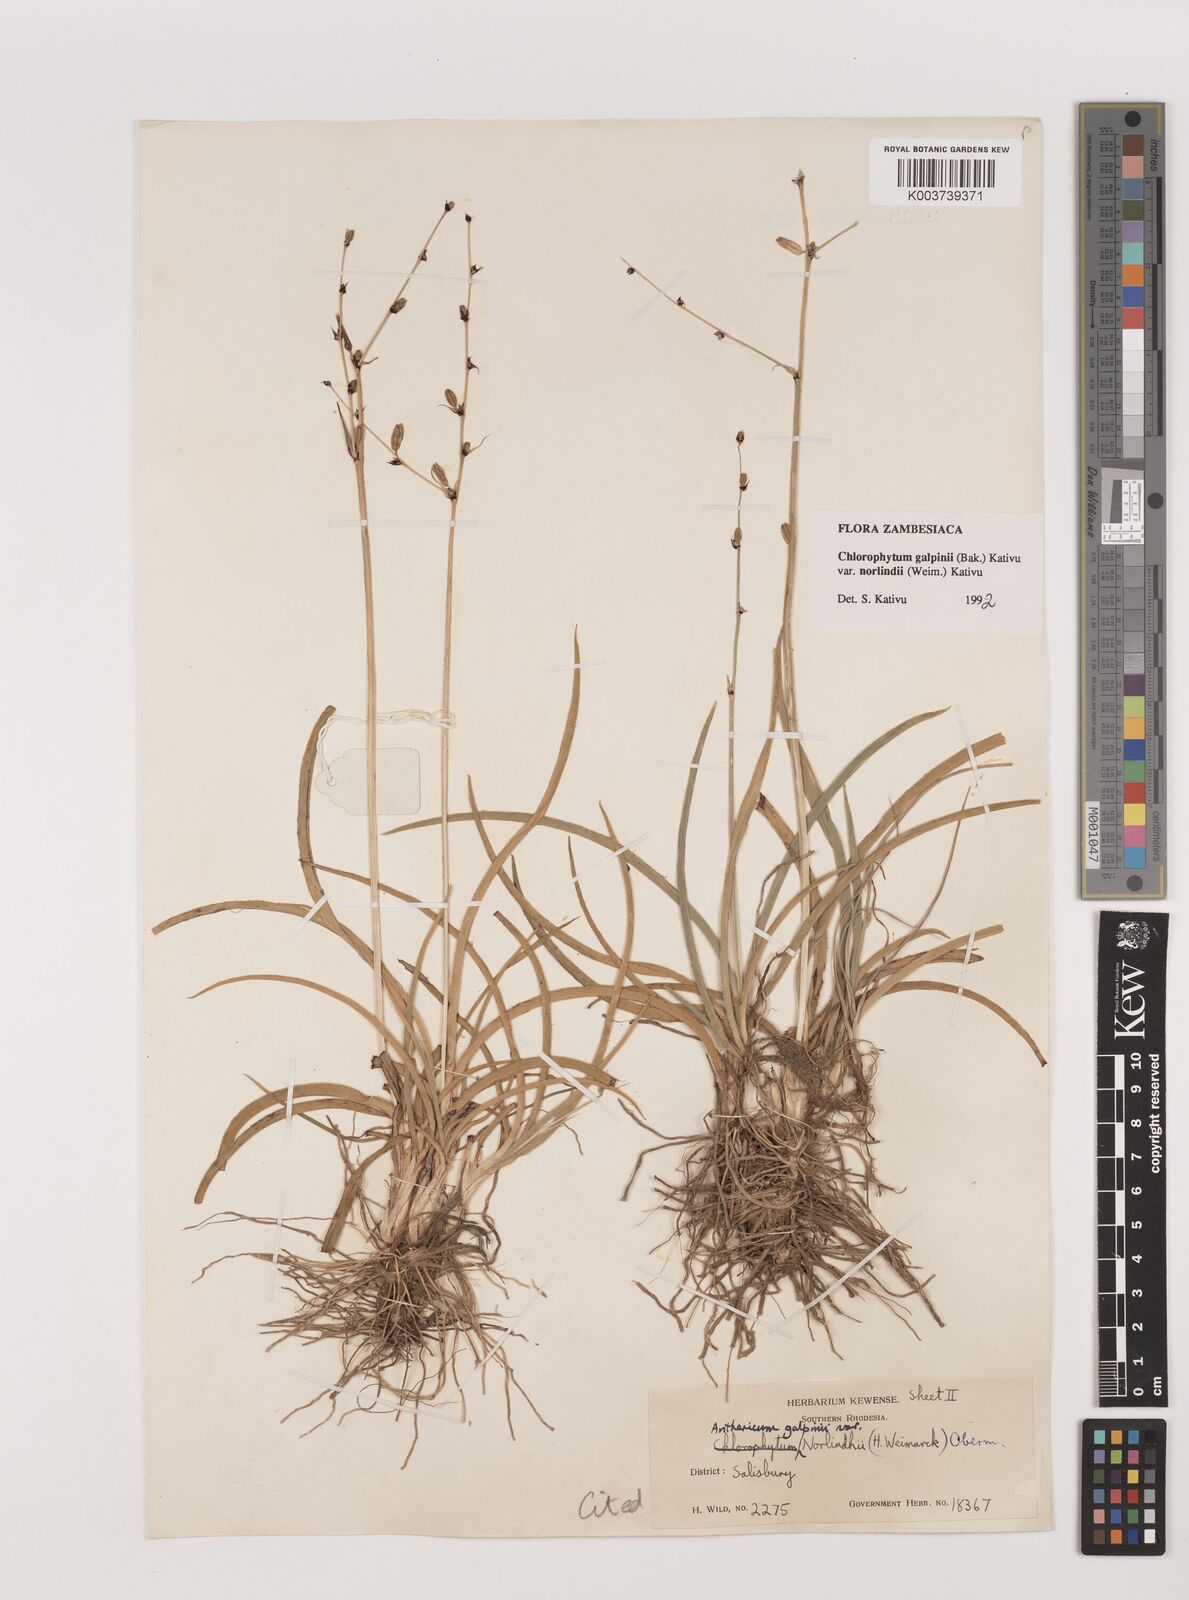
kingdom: Plantae
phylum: Tracheophyta
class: Liliopsida
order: Asparagales
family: Asparagaceae
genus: Chlorophytum
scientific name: Chlorophytum galpinii
